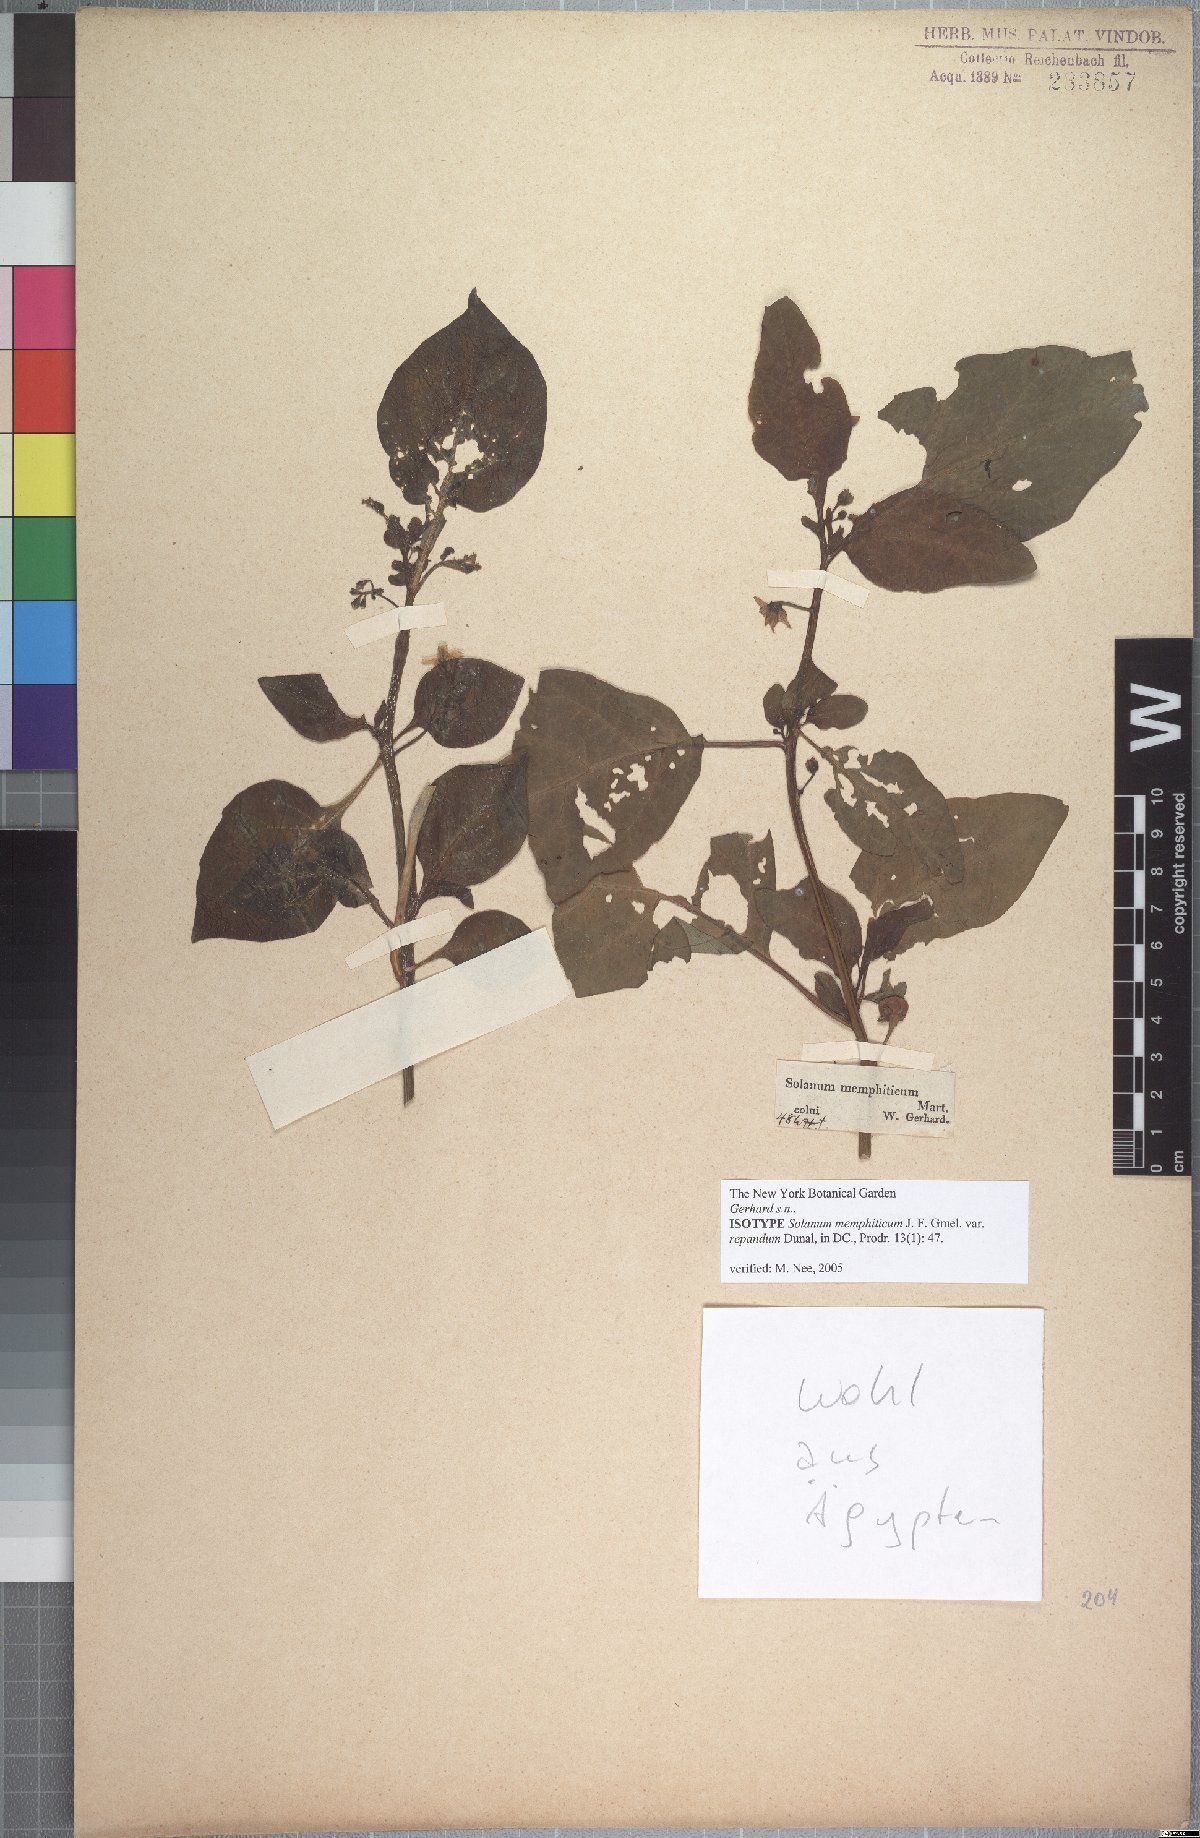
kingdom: Plantae
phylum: Tracheophyta
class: Magnoliopsida
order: Solanales
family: Solanaceae
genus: Solanum
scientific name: Solanum nigrum
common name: Black nightshade
